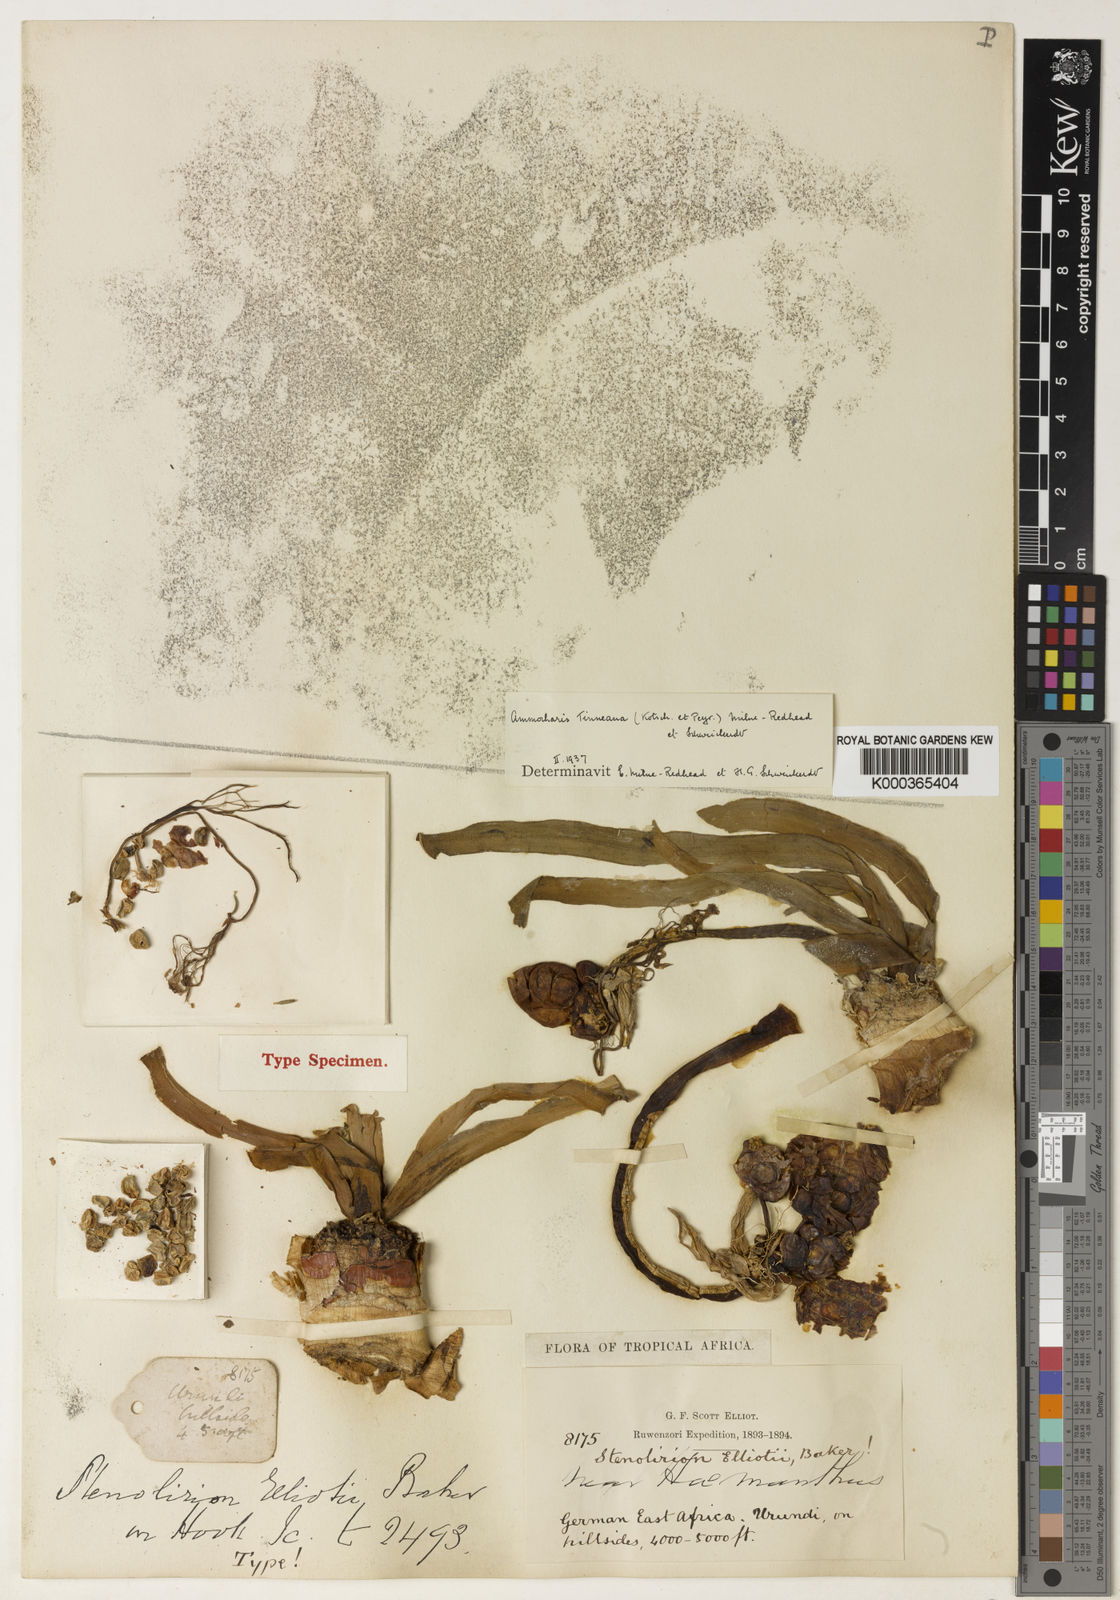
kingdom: Plantae
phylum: Tracheophyta
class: Liliopsida
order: Asparagales
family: Amaryllidaceae
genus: Ammocharis
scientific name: Ammocharis tinneana
